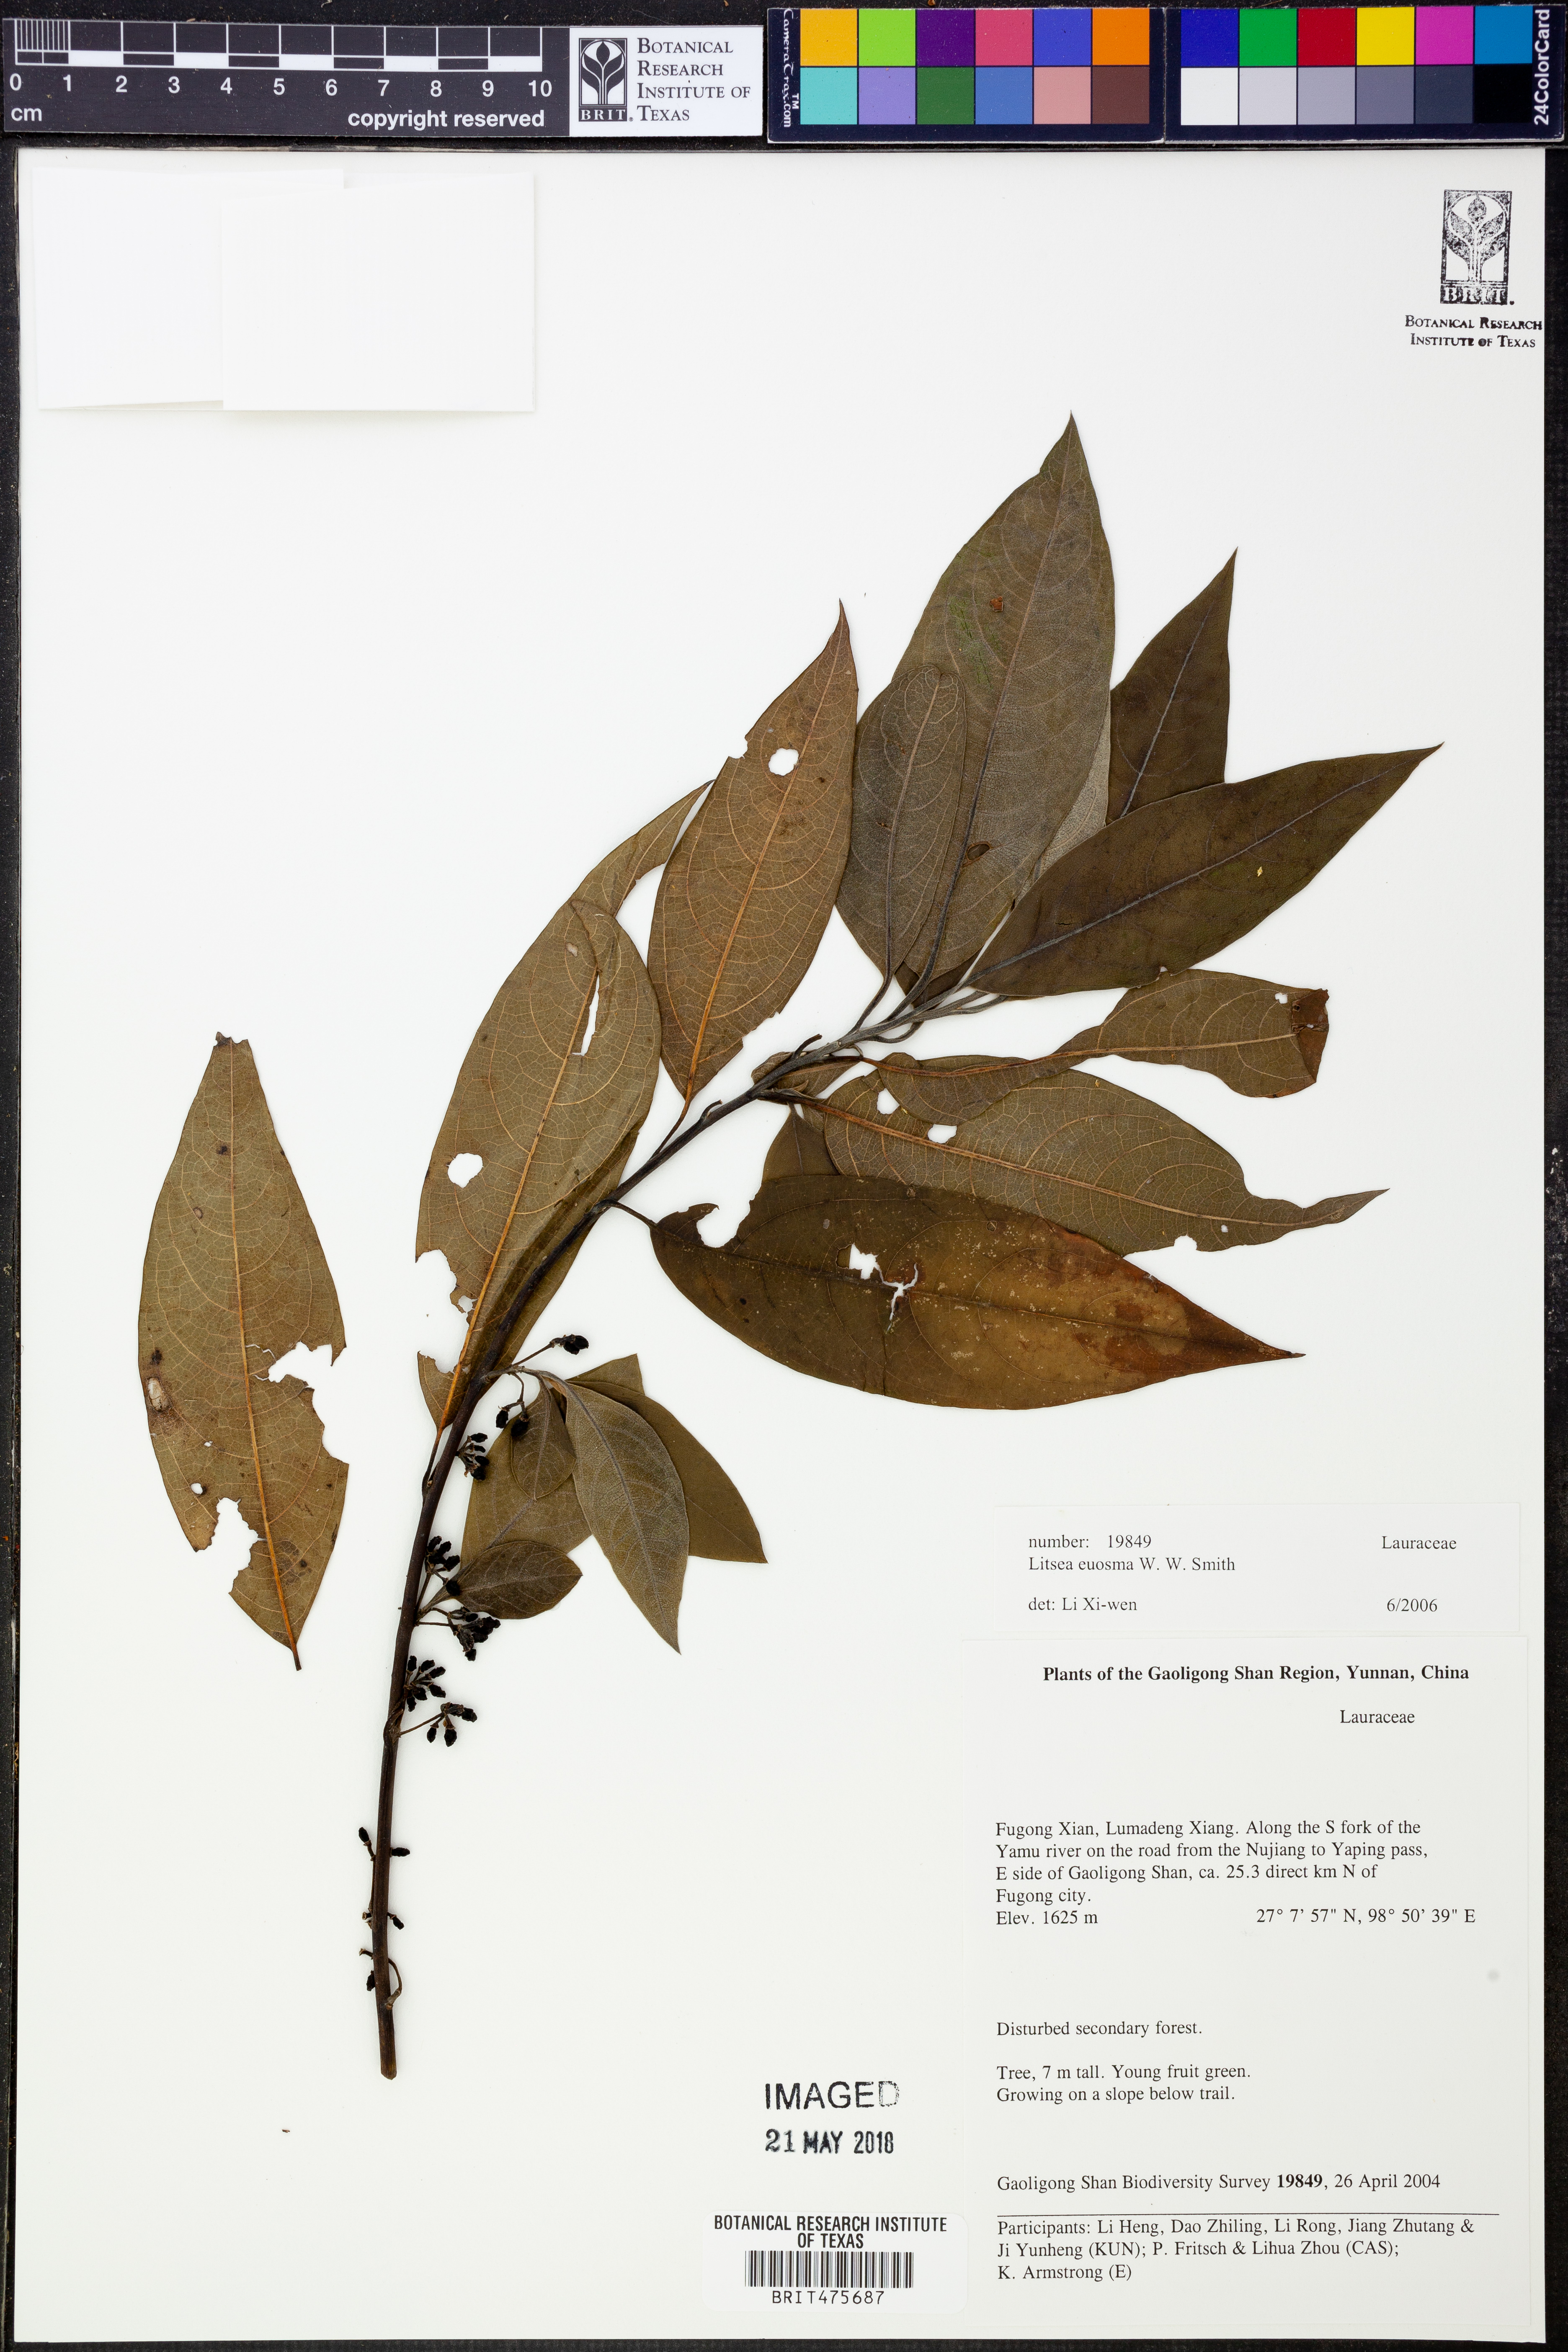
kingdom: Plantae
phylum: Tracheophyta
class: Magnoliopsida
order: Laurales
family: Lauraceae
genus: Litsea
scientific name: Litsea euosma
